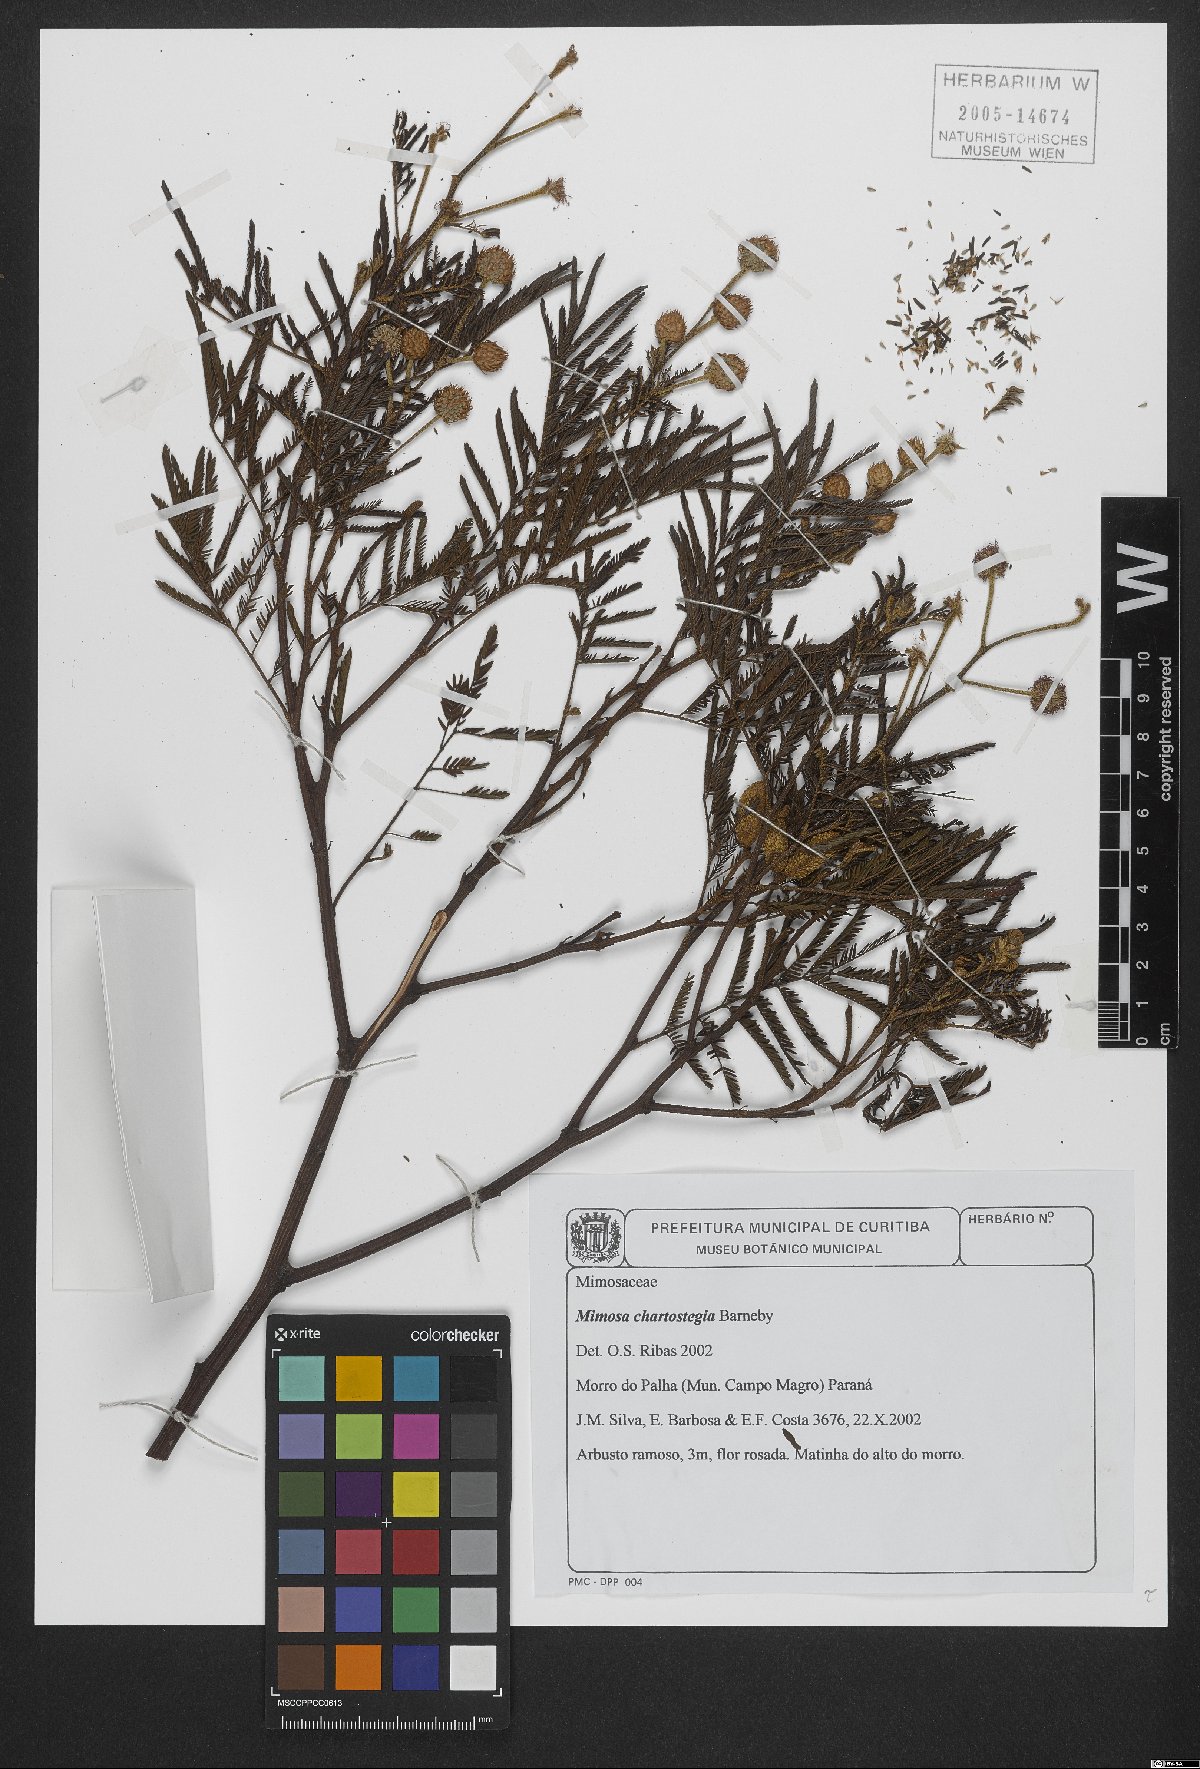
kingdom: Plantae
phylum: Tracheophyta
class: Magnoliopsida
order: Fabales
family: Fabaceae
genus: Mimosa
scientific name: Mimosa chartostegia
